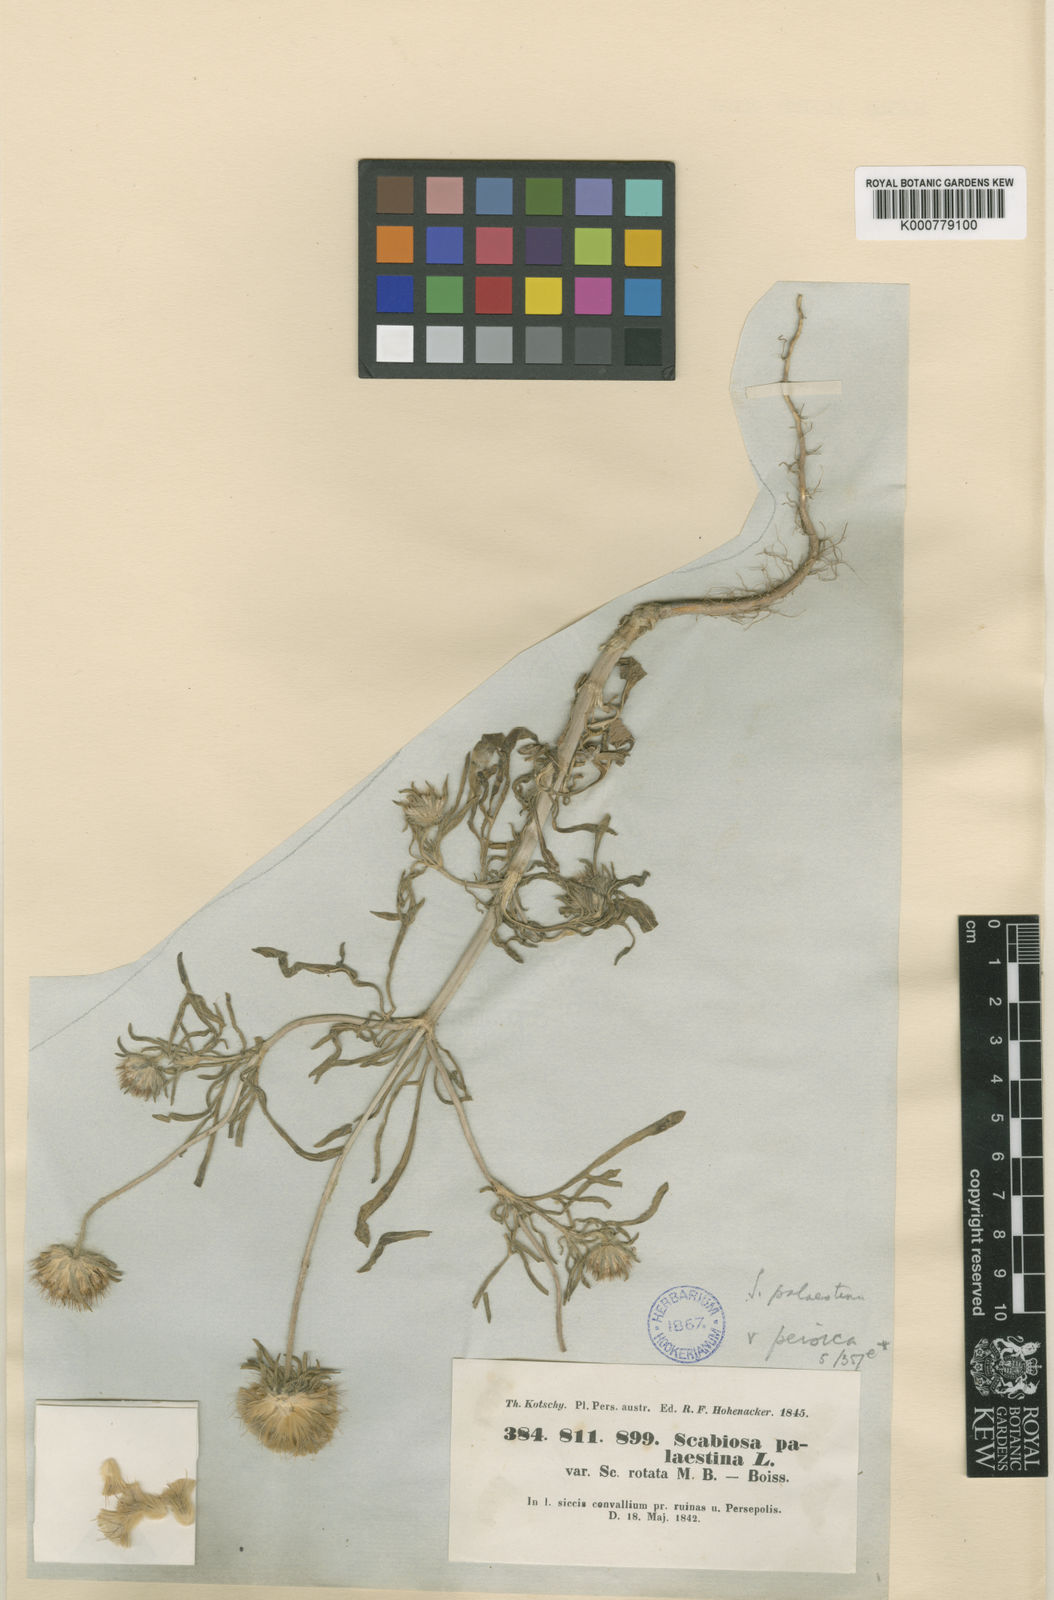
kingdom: Plantae
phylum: Tracheophyta
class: Magnoliopsida
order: Dipsacales
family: Caprifoliaceae
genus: Lomelosia
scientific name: Lomelosia palaestina
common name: Balkan pincushions
